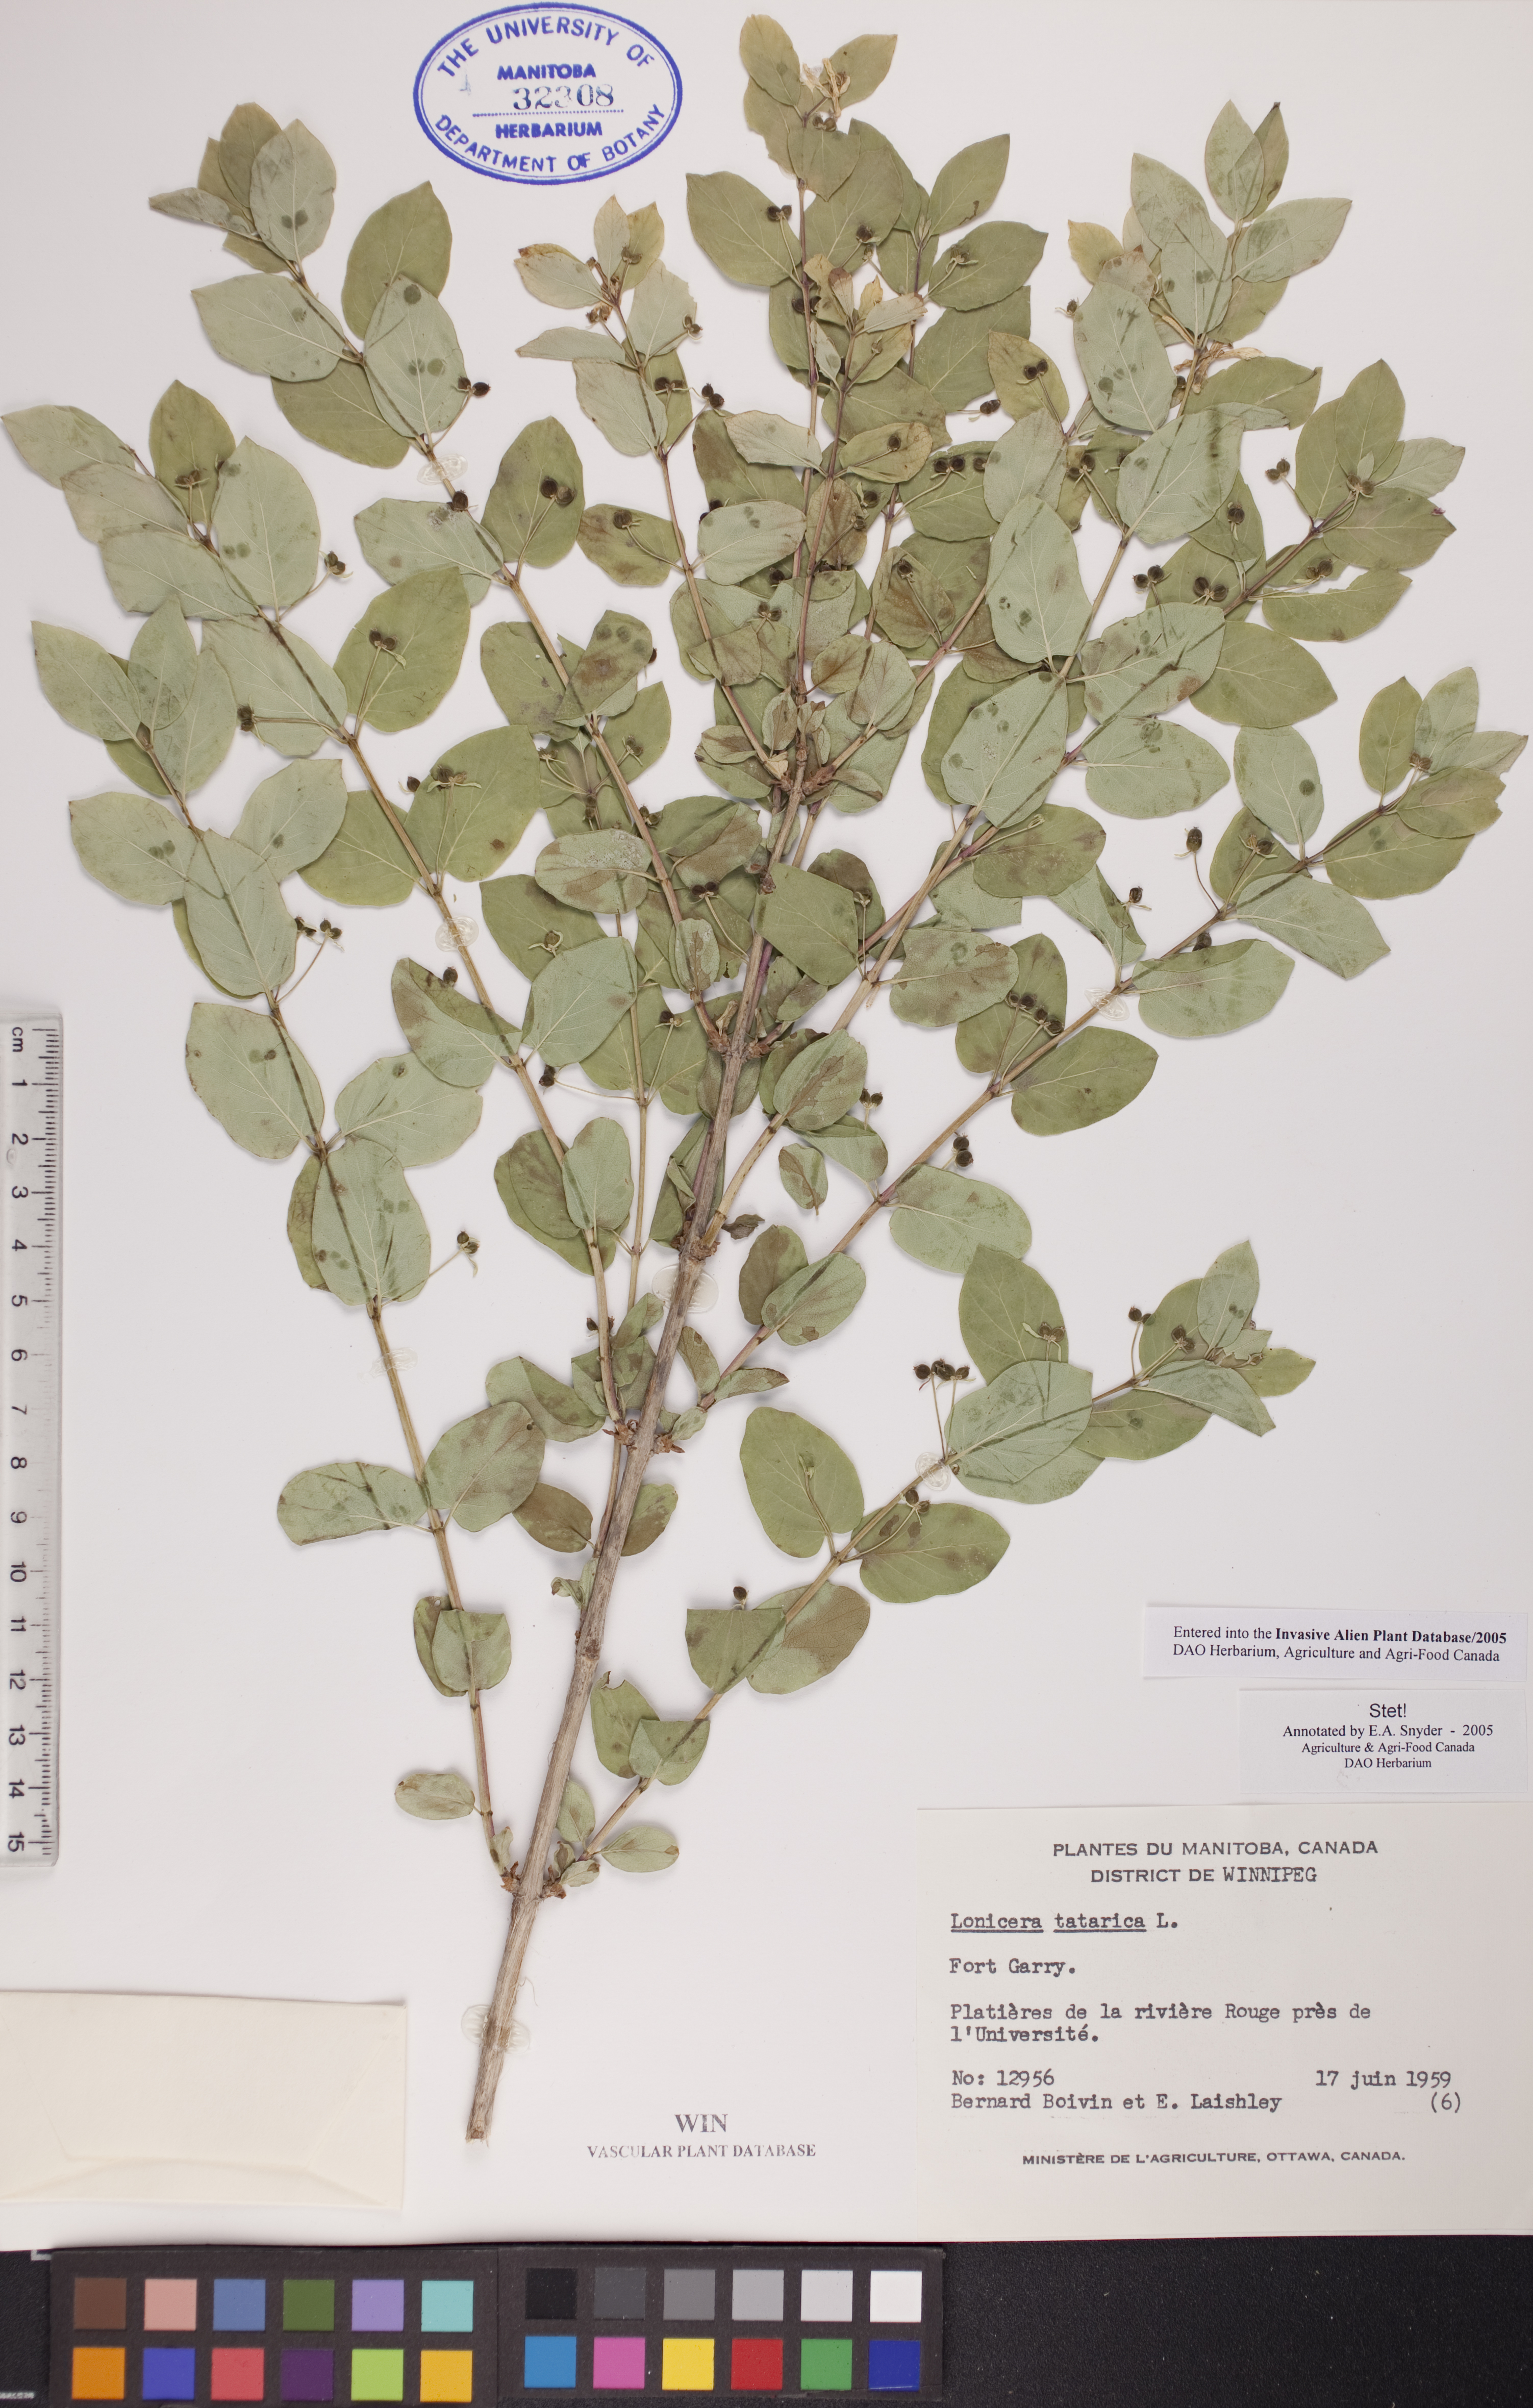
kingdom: Plantae
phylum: Tracheophyta
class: Magnoliopsida
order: Dipsacales
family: Caprifoliaceae
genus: Lonicera
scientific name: Lonicera tatarica
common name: Tatarian honeysuckle
